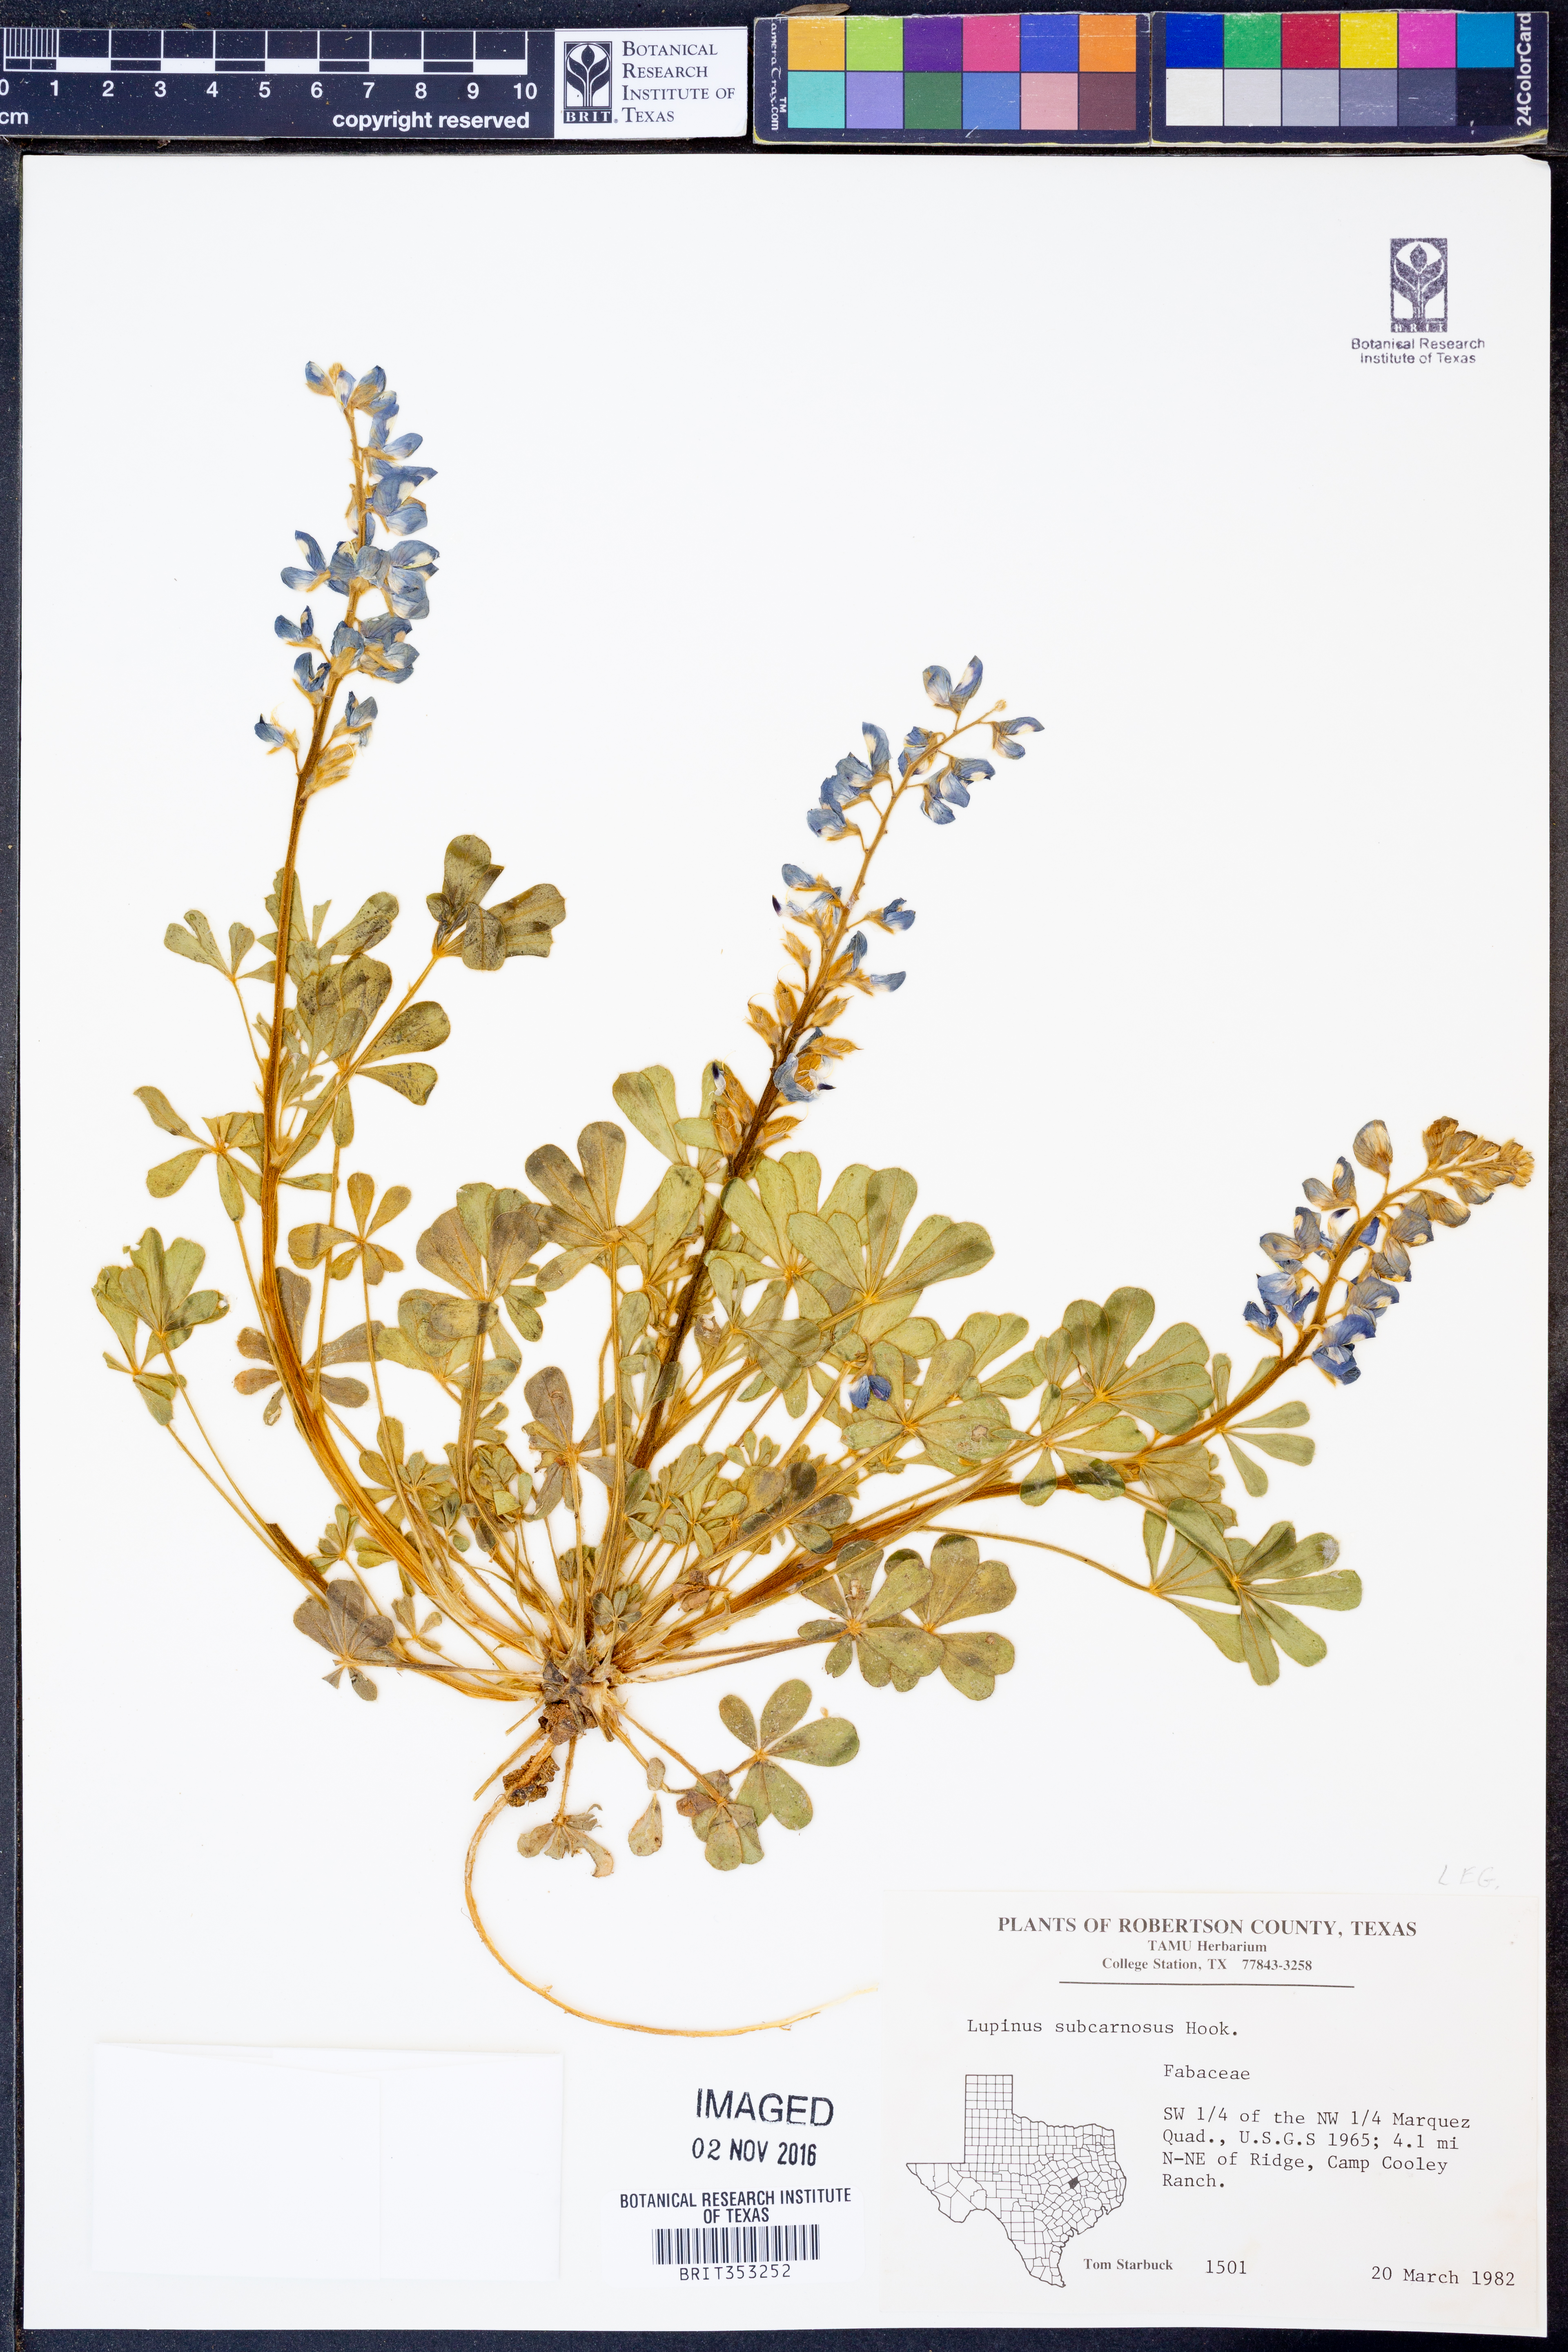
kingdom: Plantae
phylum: Tracheophyta
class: Magnoliopsida
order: Fabales
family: Fabaceae
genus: Lupinus
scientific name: Lupinus subcarnosus
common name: Texas bluebonnet
